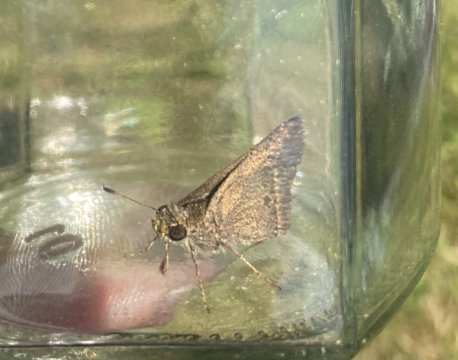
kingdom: Animalia
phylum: Arthropoda
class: Insecta
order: Lepidoptera
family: Hesperiidae
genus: Polites
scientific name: Polites themistocles
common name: Tawny-edged Skipper
